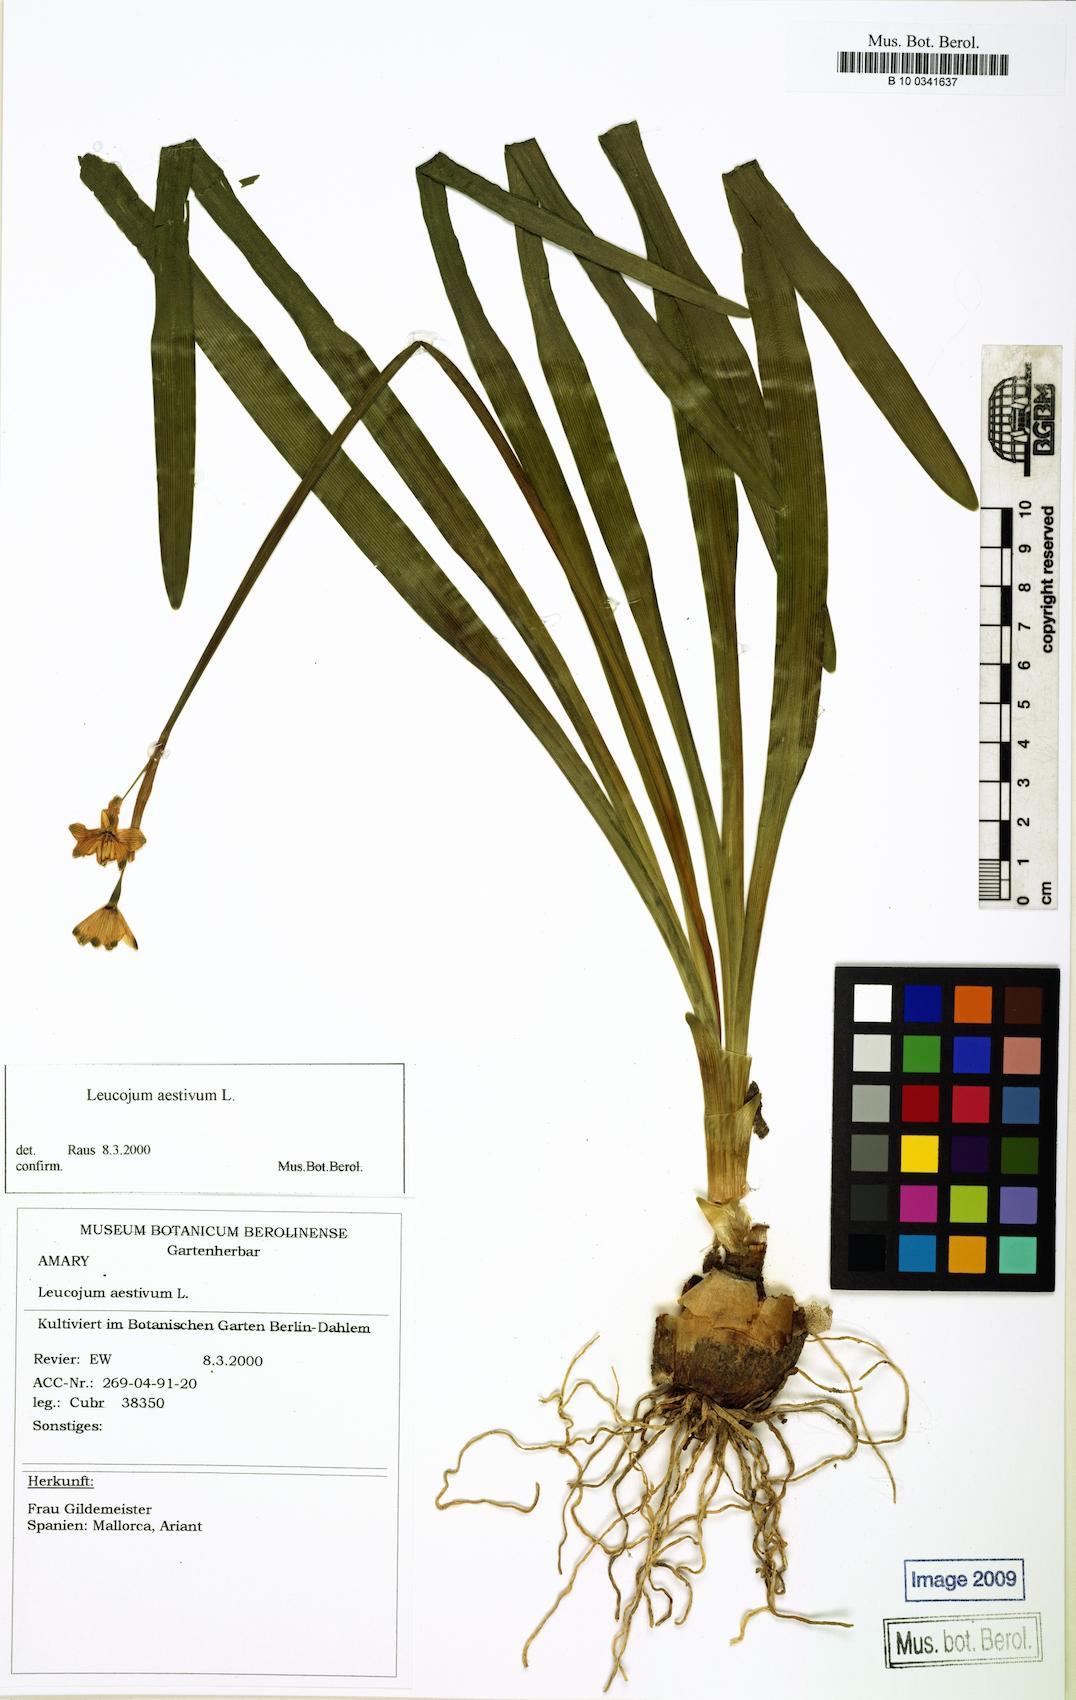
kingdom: Plantae
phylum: Tracheophyta
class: Liliopsida
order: Asparagales
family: Amaryllidaceae
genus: Leucojum
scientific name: Leucojum aestivum
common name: Summer snowflake
